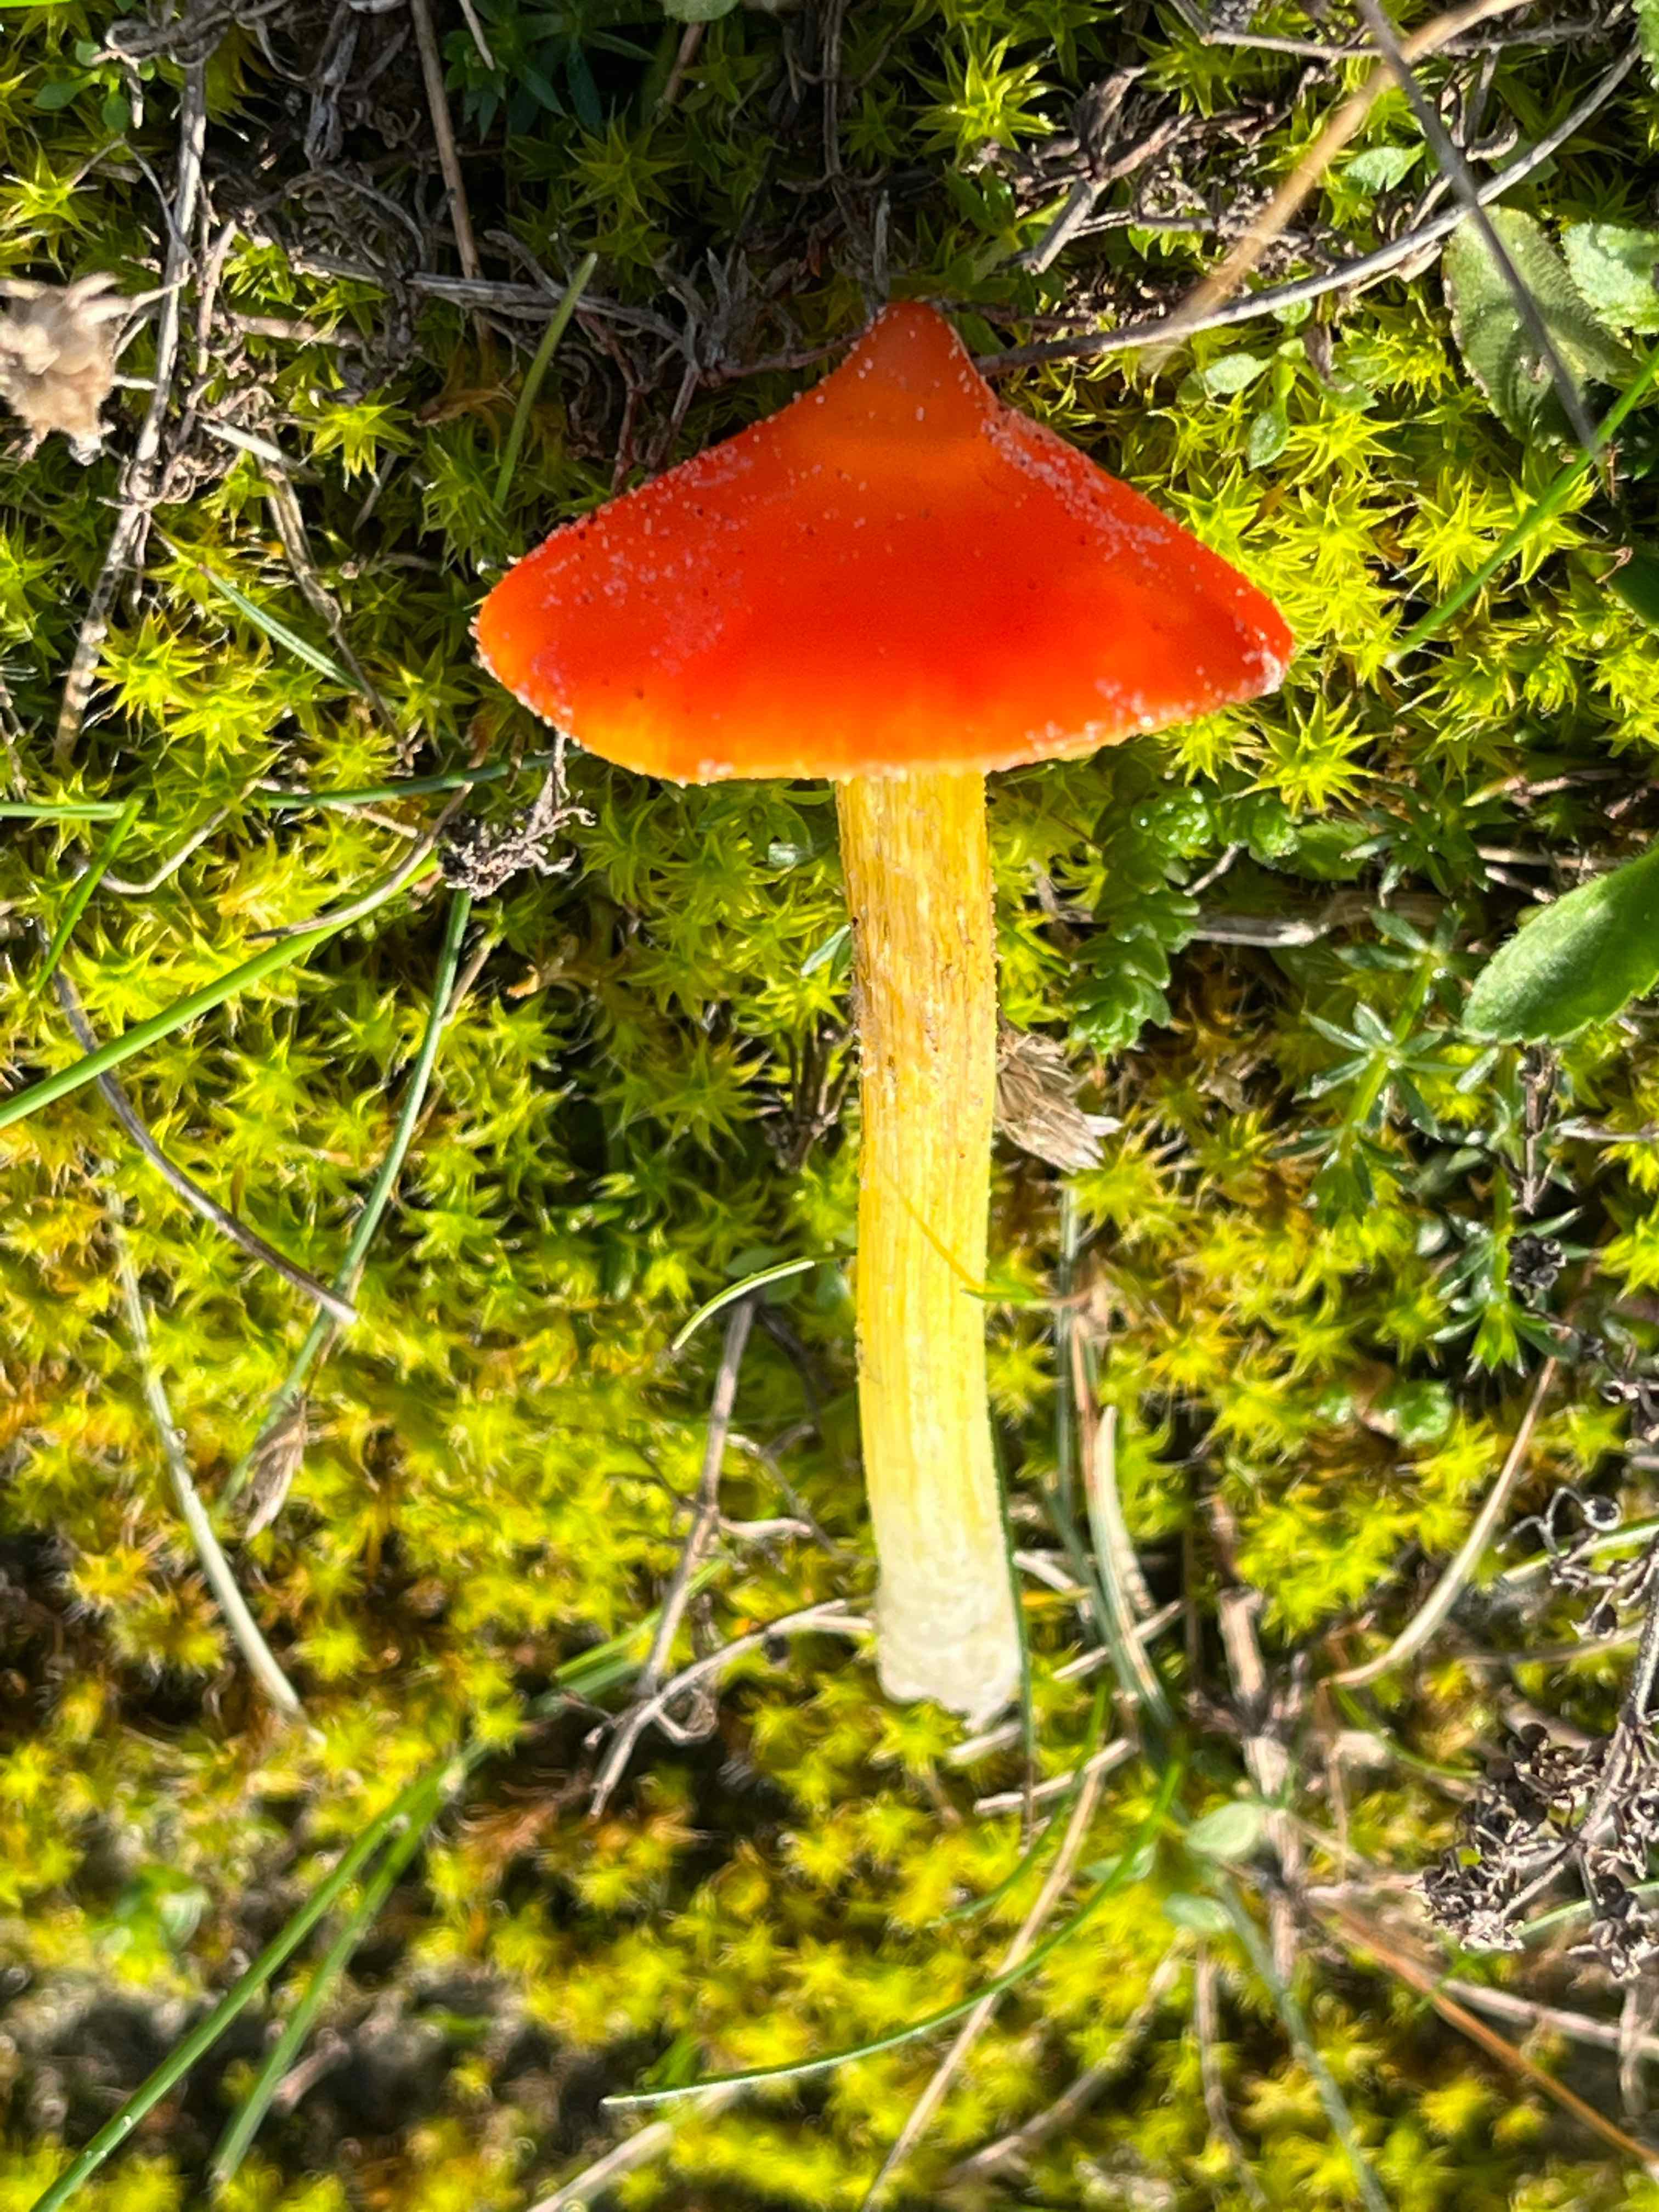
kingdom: Fungi
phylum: Basidiomycota
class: Agaricomycetes
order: Agaricales
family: Hygrophoraceae
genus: Hygrocybe
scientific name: Hygrocybe
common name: vokshat
